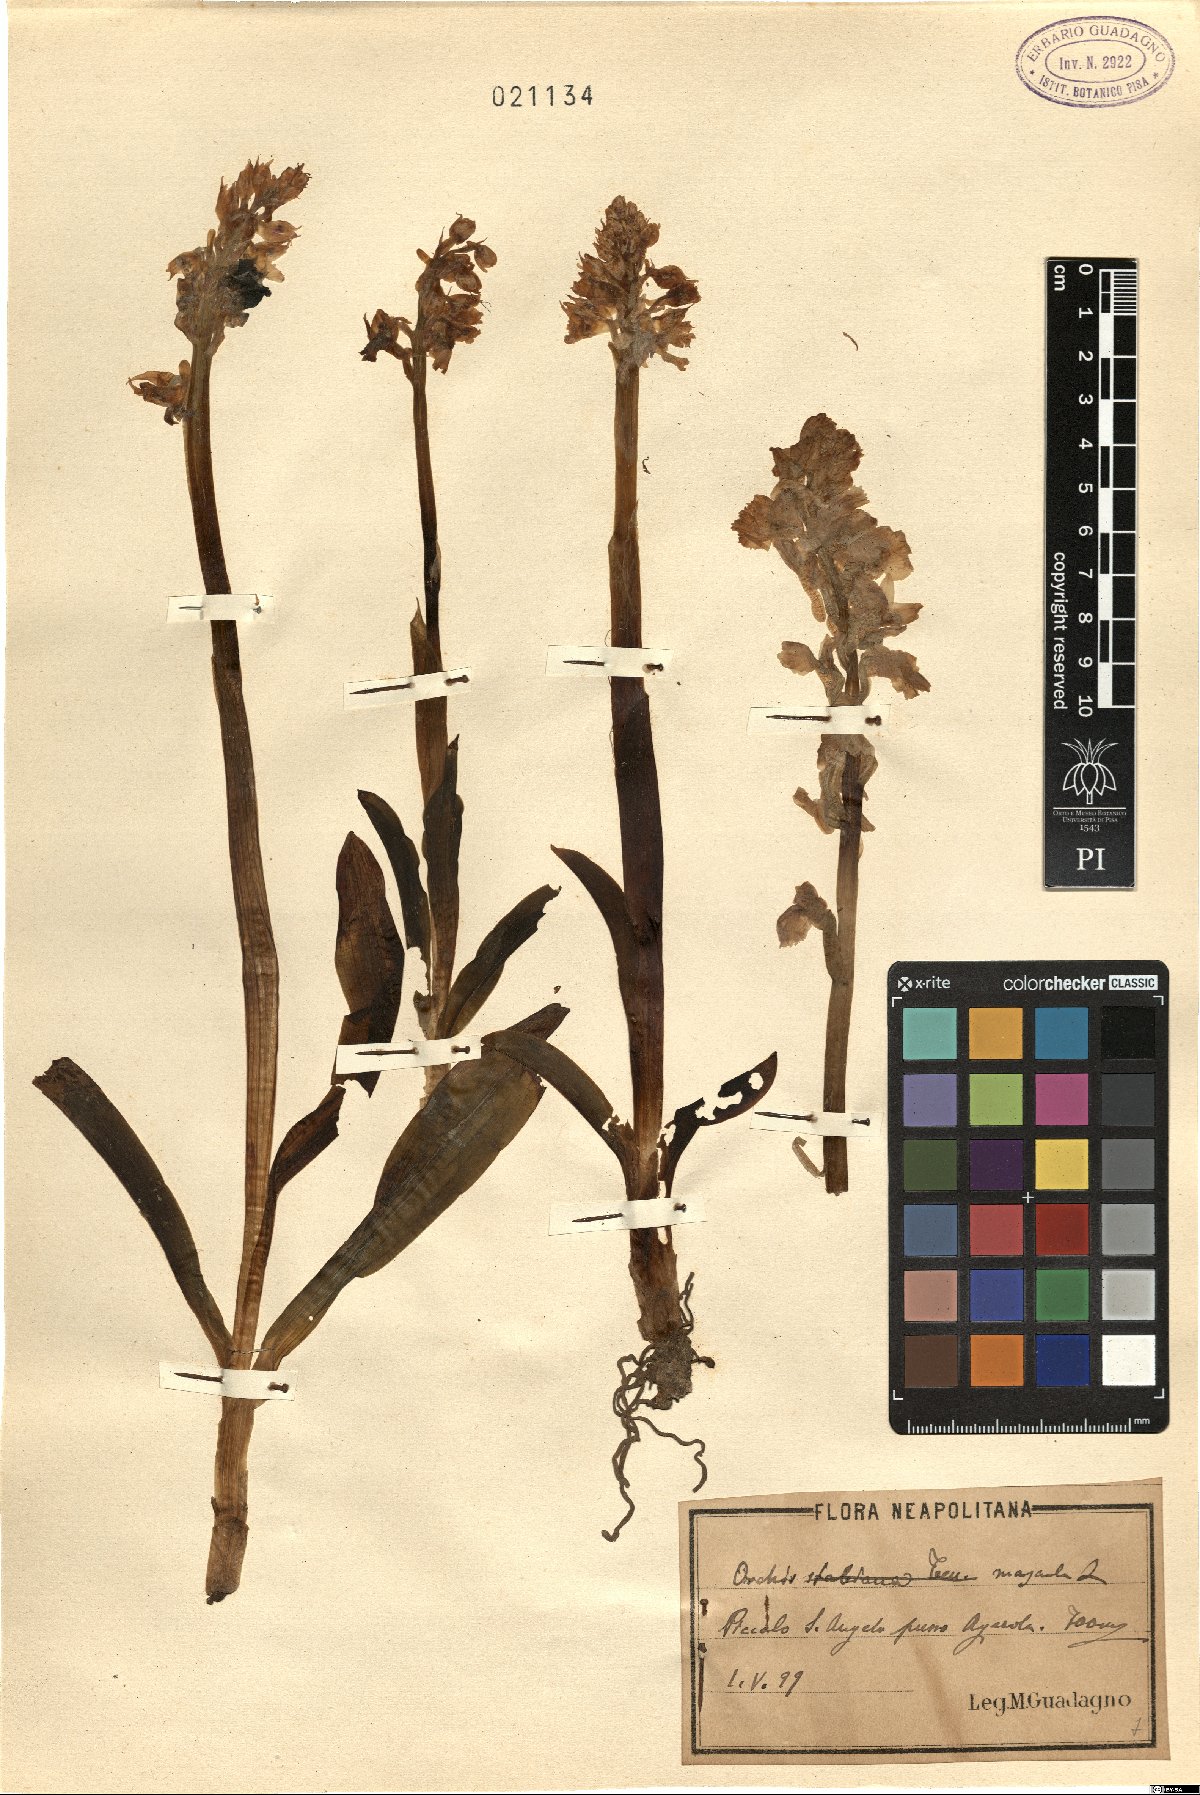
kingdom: Plantae
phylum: Tracheophyta
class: Liliopsida
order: Asparagales
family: Orchidaceae
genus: Orchis
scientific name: Orchis mascula
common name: Early-purple orchid
